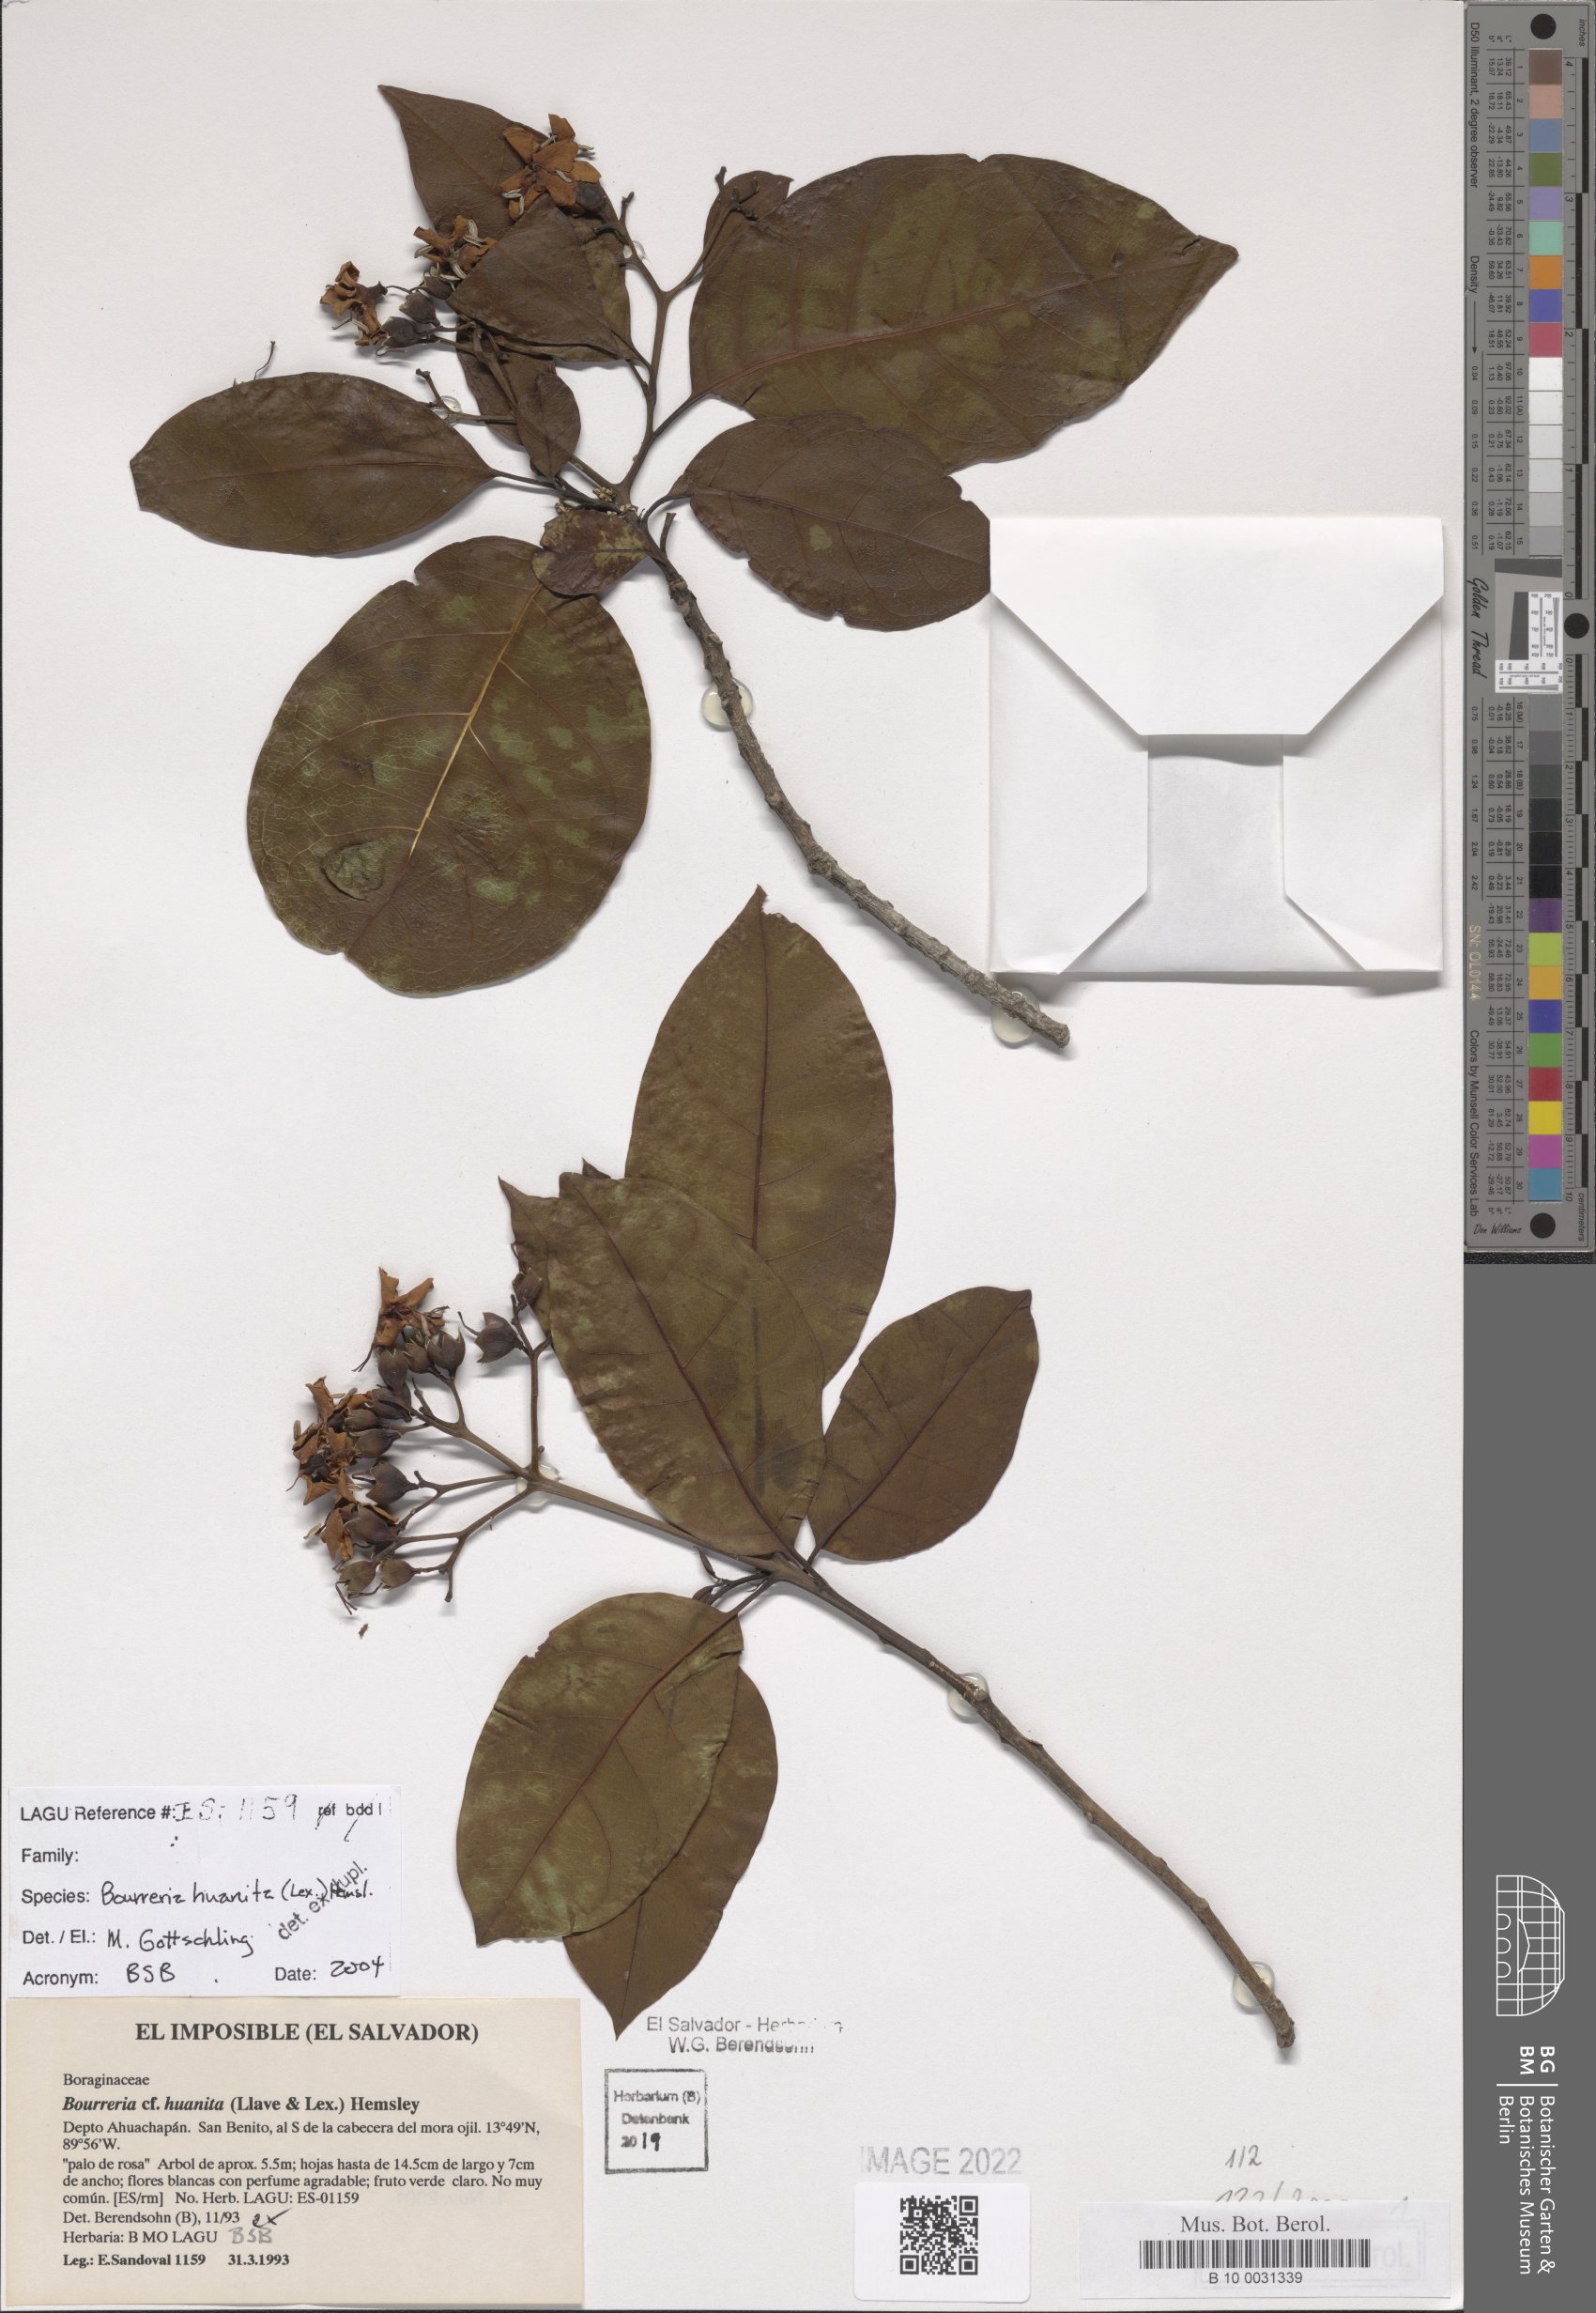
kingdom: Plantae
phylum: Tracheophyta
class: Magnoliopsida
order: Boraginales
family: Ehretiaceae
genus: Bourreria
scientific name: Bourreria huanita
